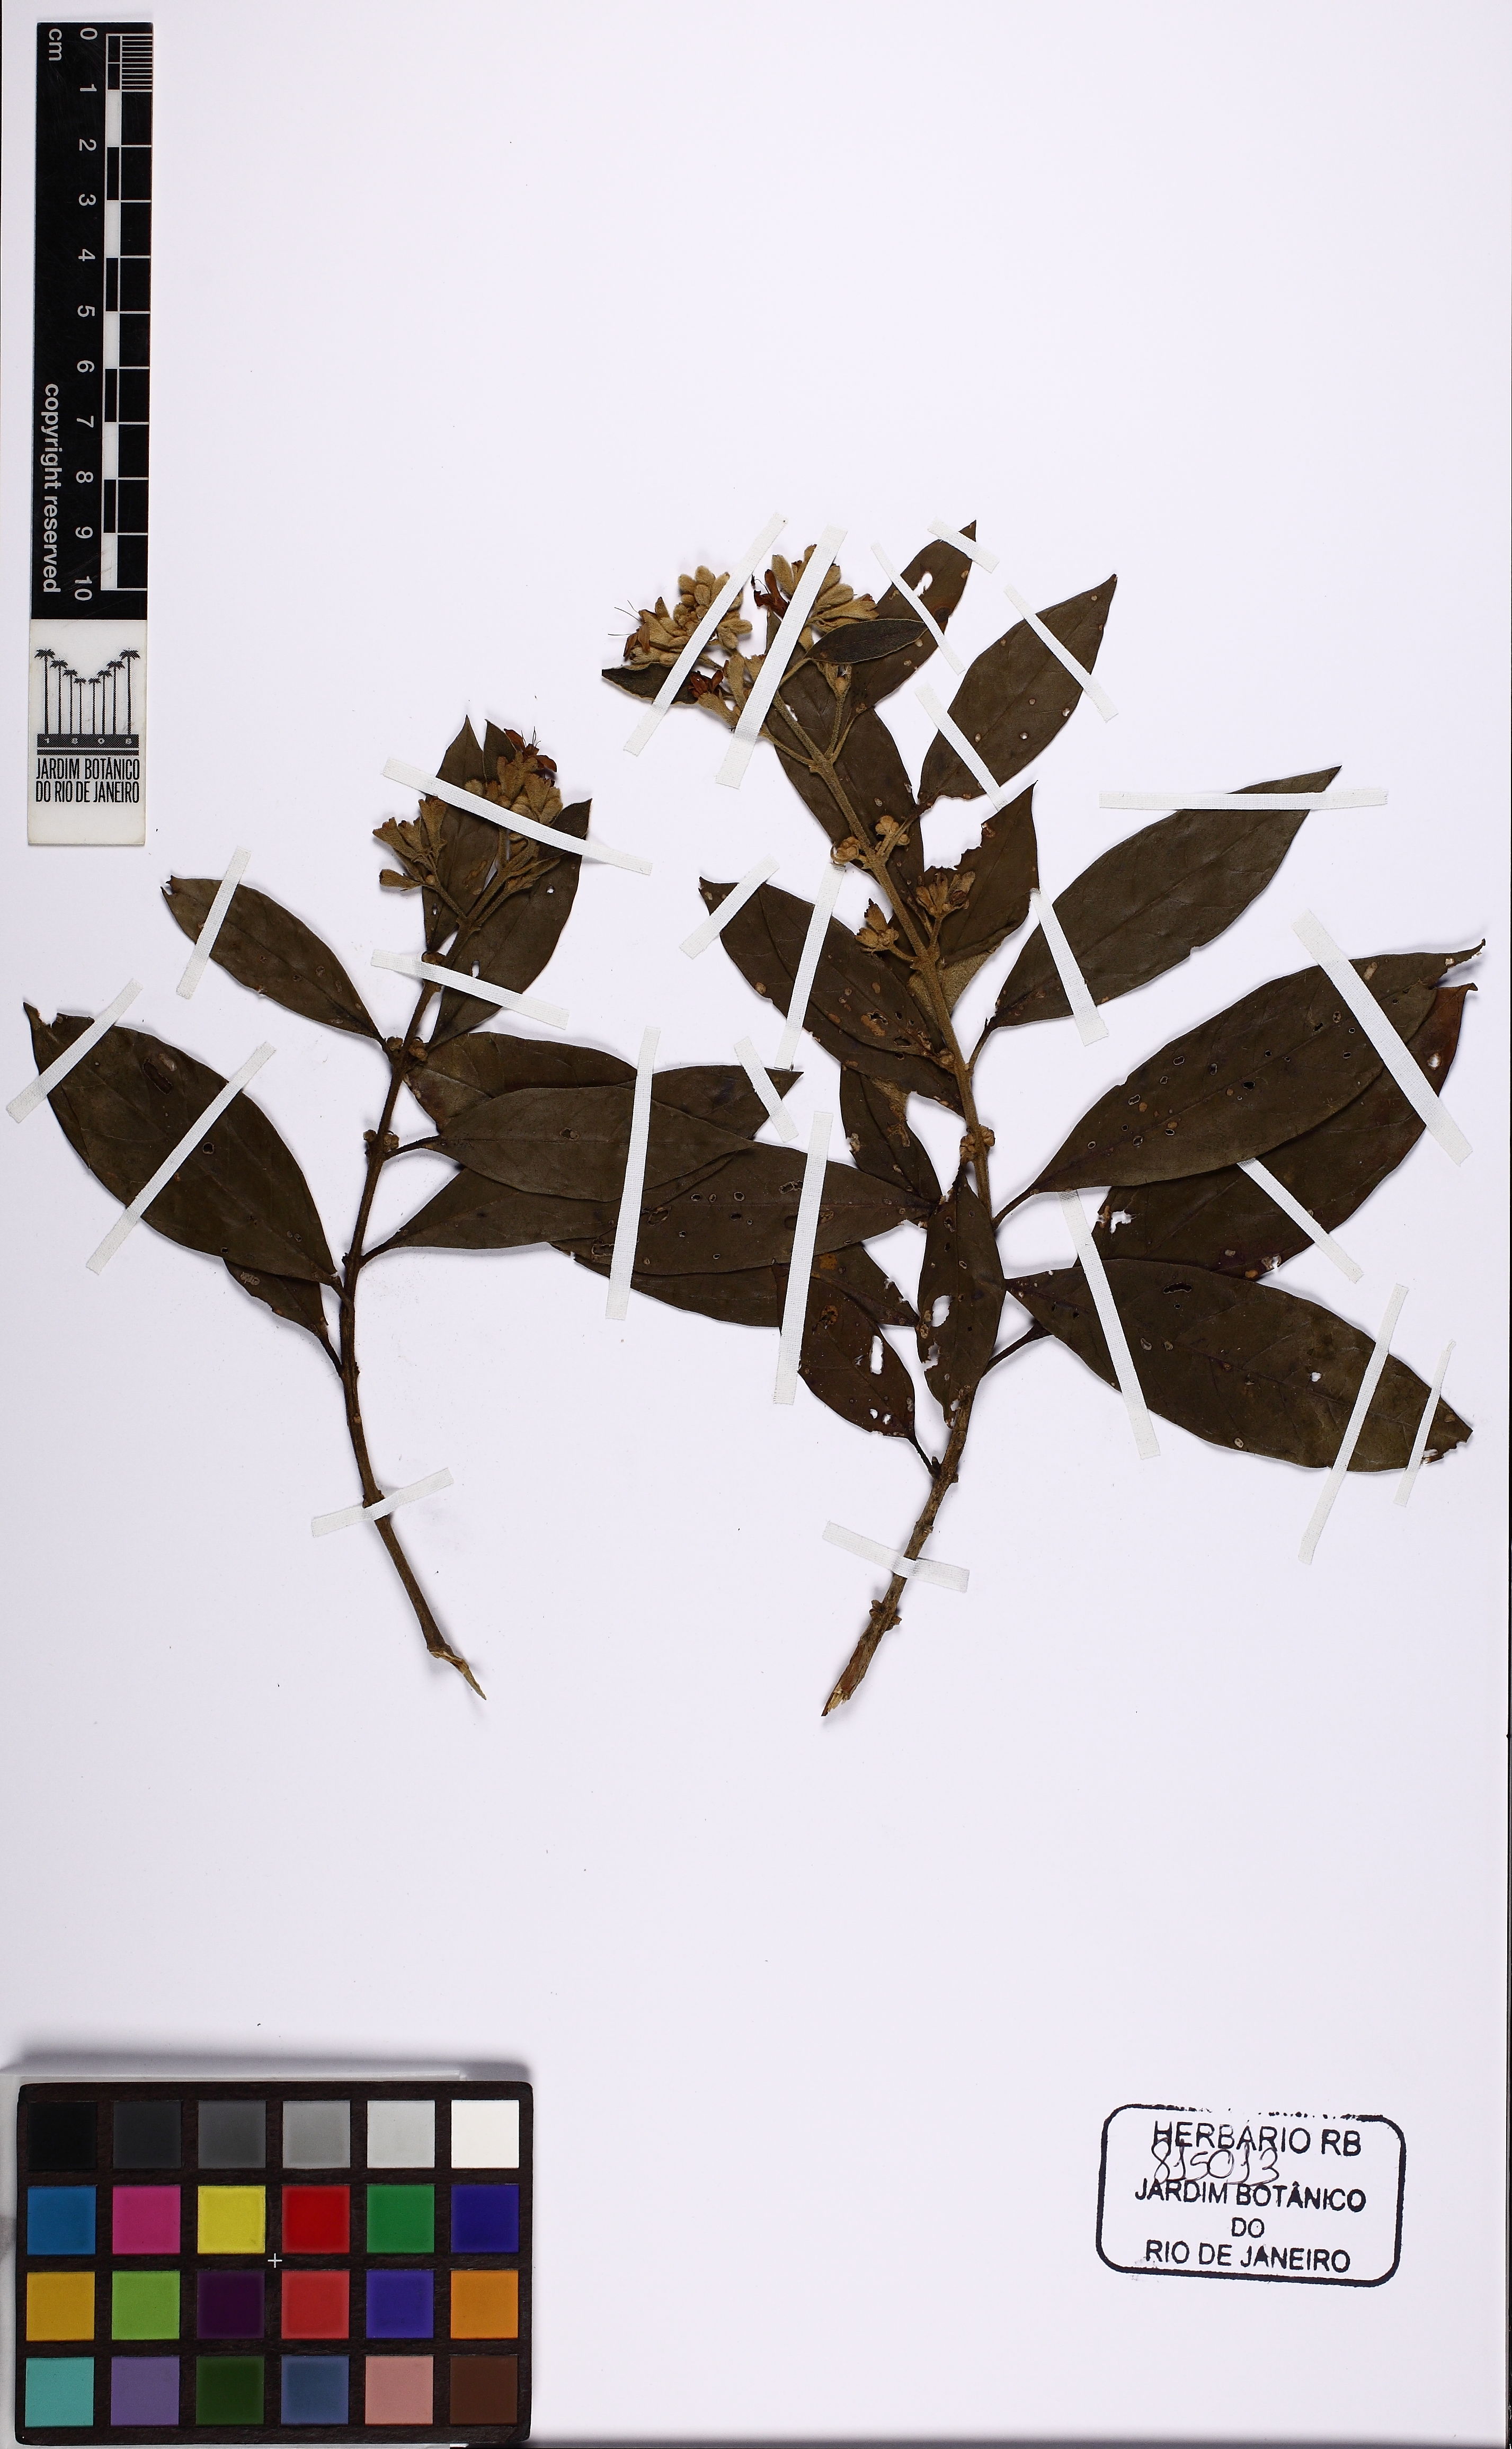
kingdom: Plantae
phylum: Tracheophyta
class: Magnoliopsida
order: Lamiales
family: Lamiaceae
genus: Aegiphila
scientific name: Aegiphila obducta
